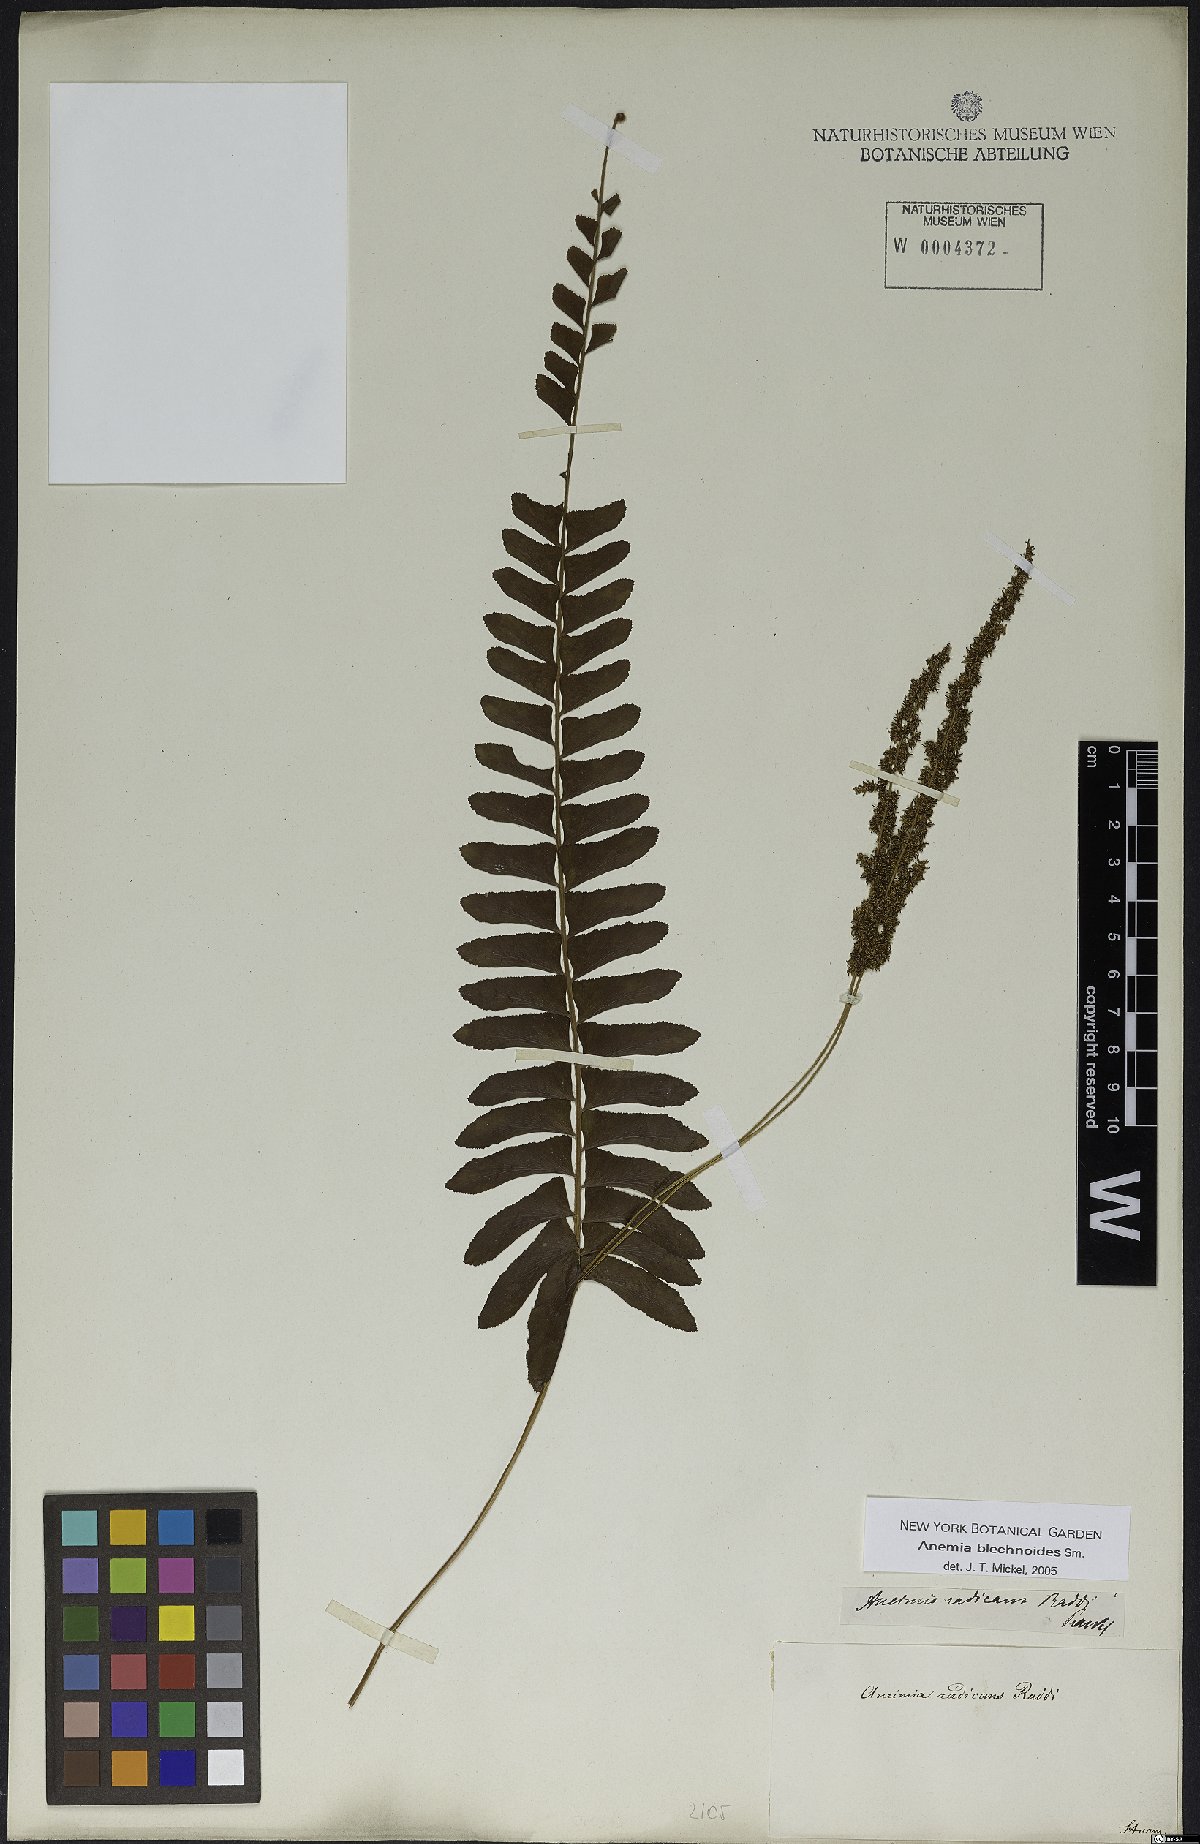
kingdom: Plantae
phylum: Tracheophyta
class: Polypodiopsida
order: Schizaeales
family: Anemiaceae
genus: Anemia
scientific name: Anemia spicantoides
